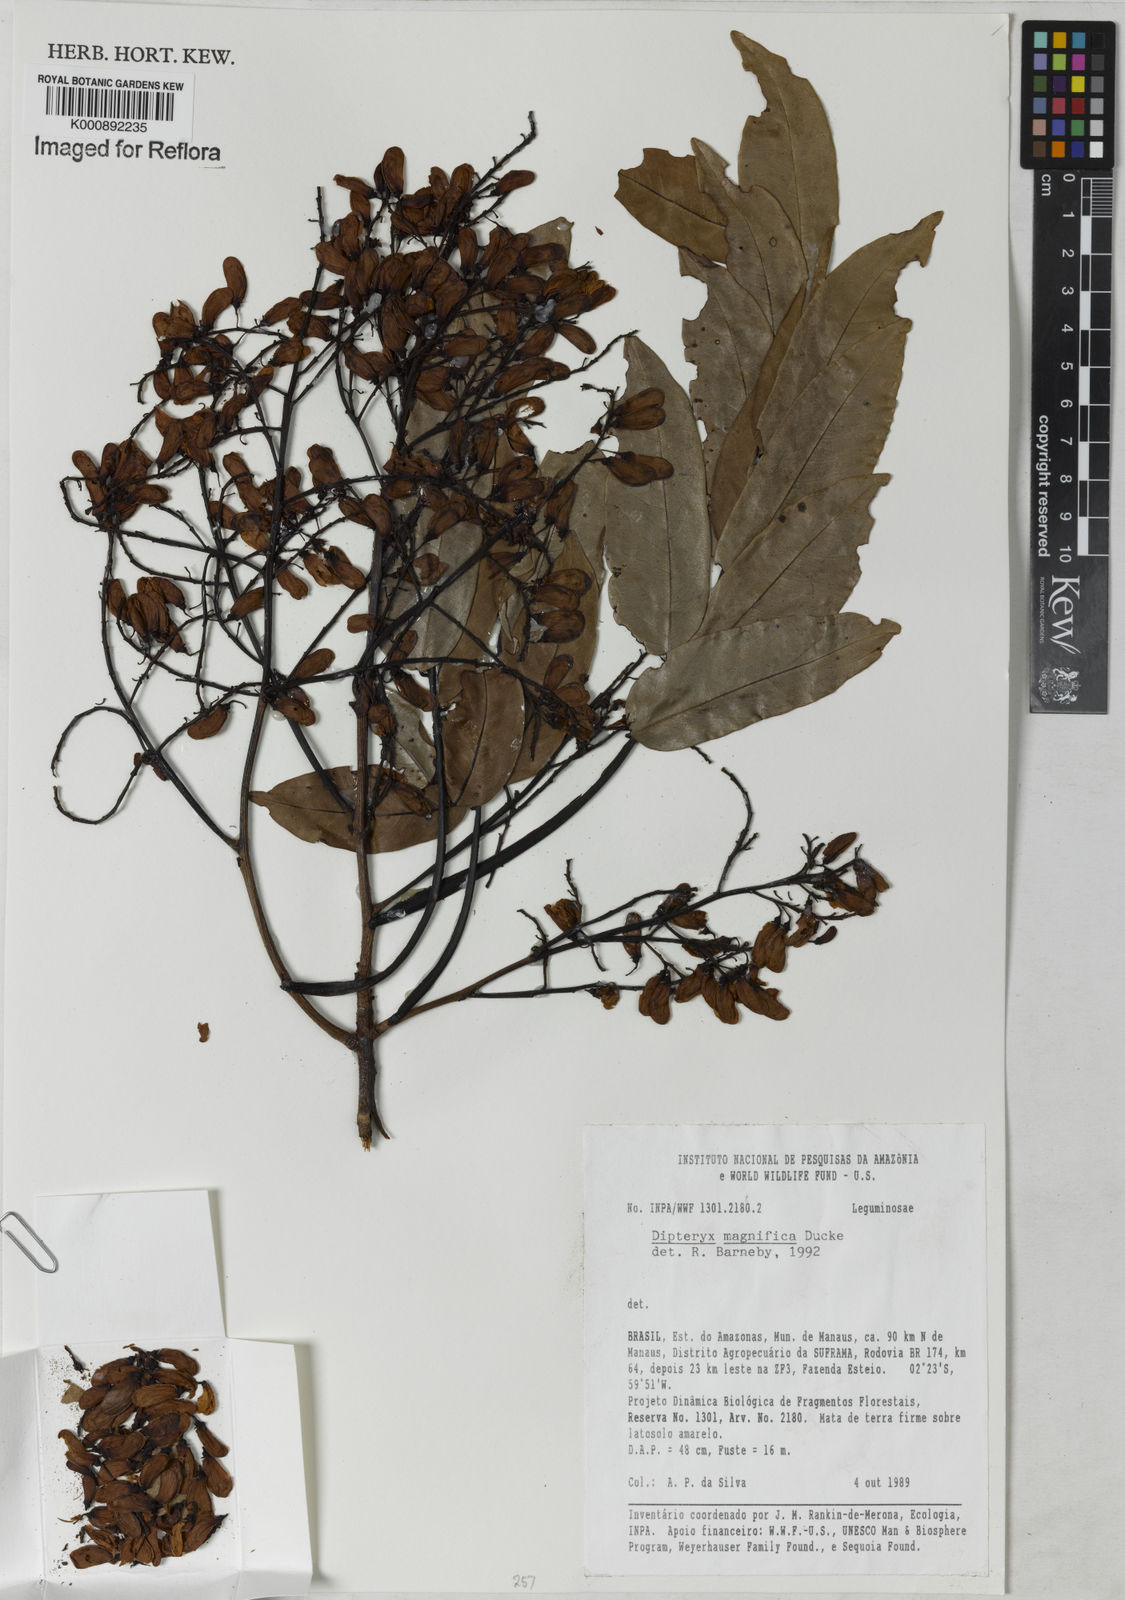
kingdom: Plantae
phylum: Tracheophyta
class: Magnoliopsida
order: Fabales
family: Fabaceae
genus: Dipteryx
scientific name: Dipteryx magnifica
